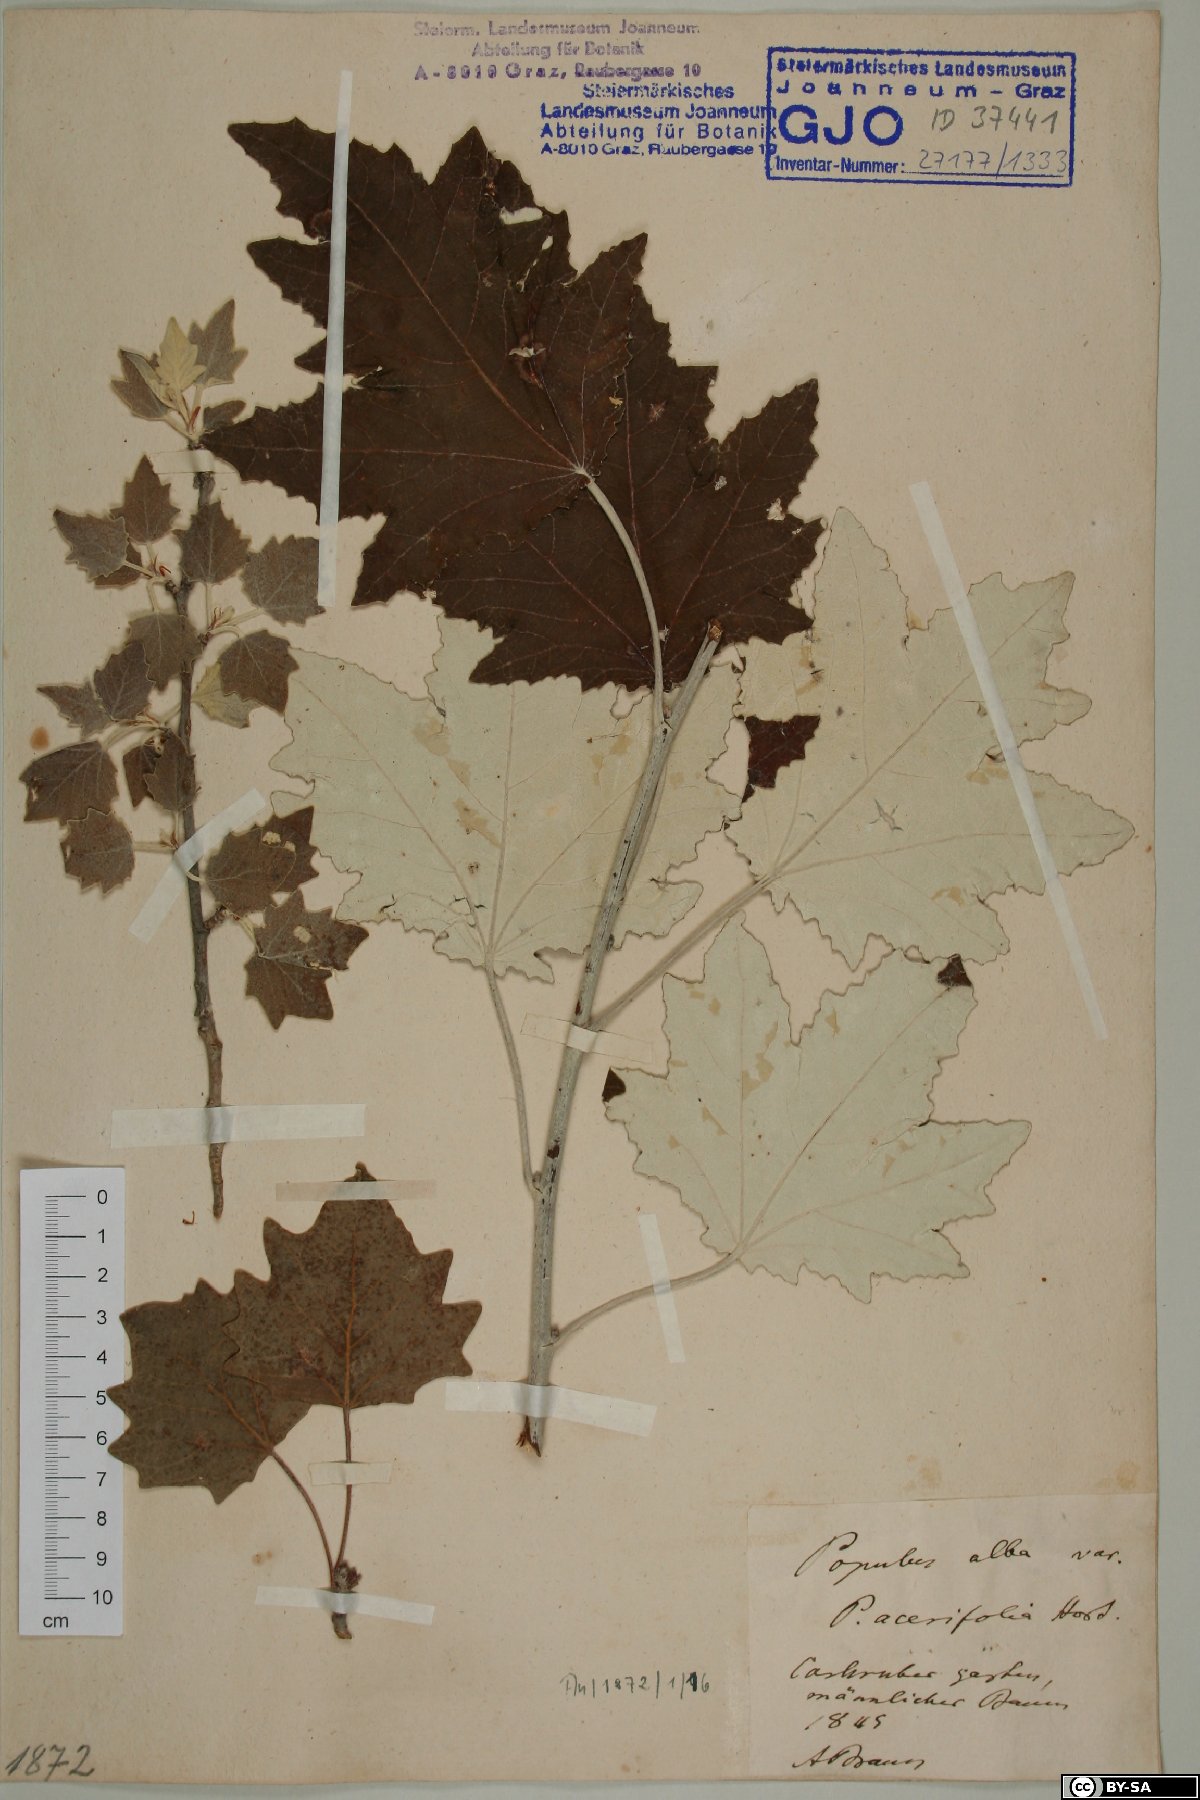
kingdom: Plantae
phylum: Tracheophyta
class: Magnoliopsida
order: Malpighiales
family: Salicaceae
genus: Populus
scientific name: Populus alba
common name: White poplar
